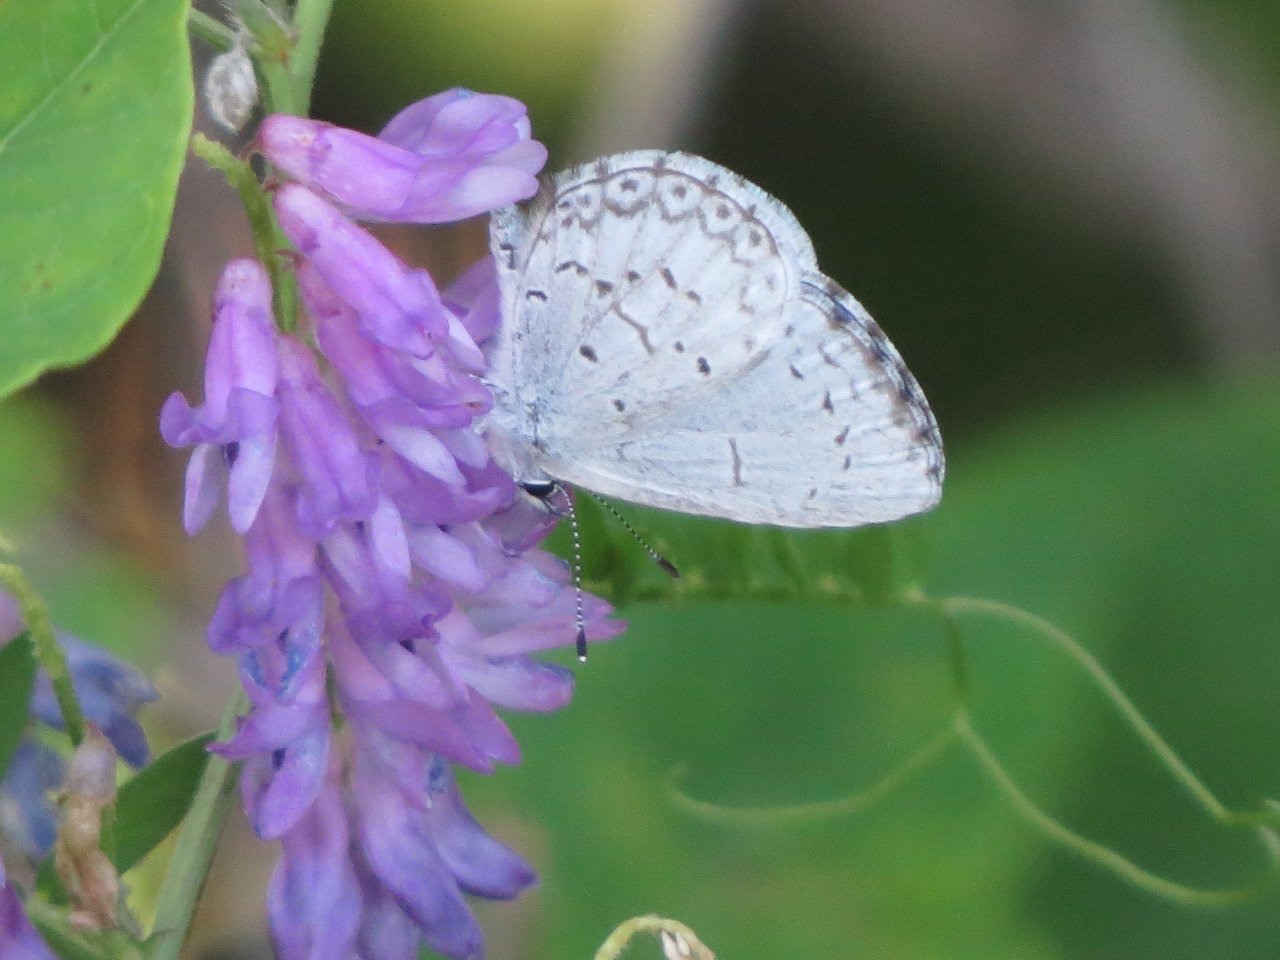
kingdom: Animalia
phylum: Arthropoda
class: Insecta
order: Lepidoptera
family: Lycaenidae
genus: Celastrina
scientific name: Celastrina lucia
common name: Northern Spring Azure
